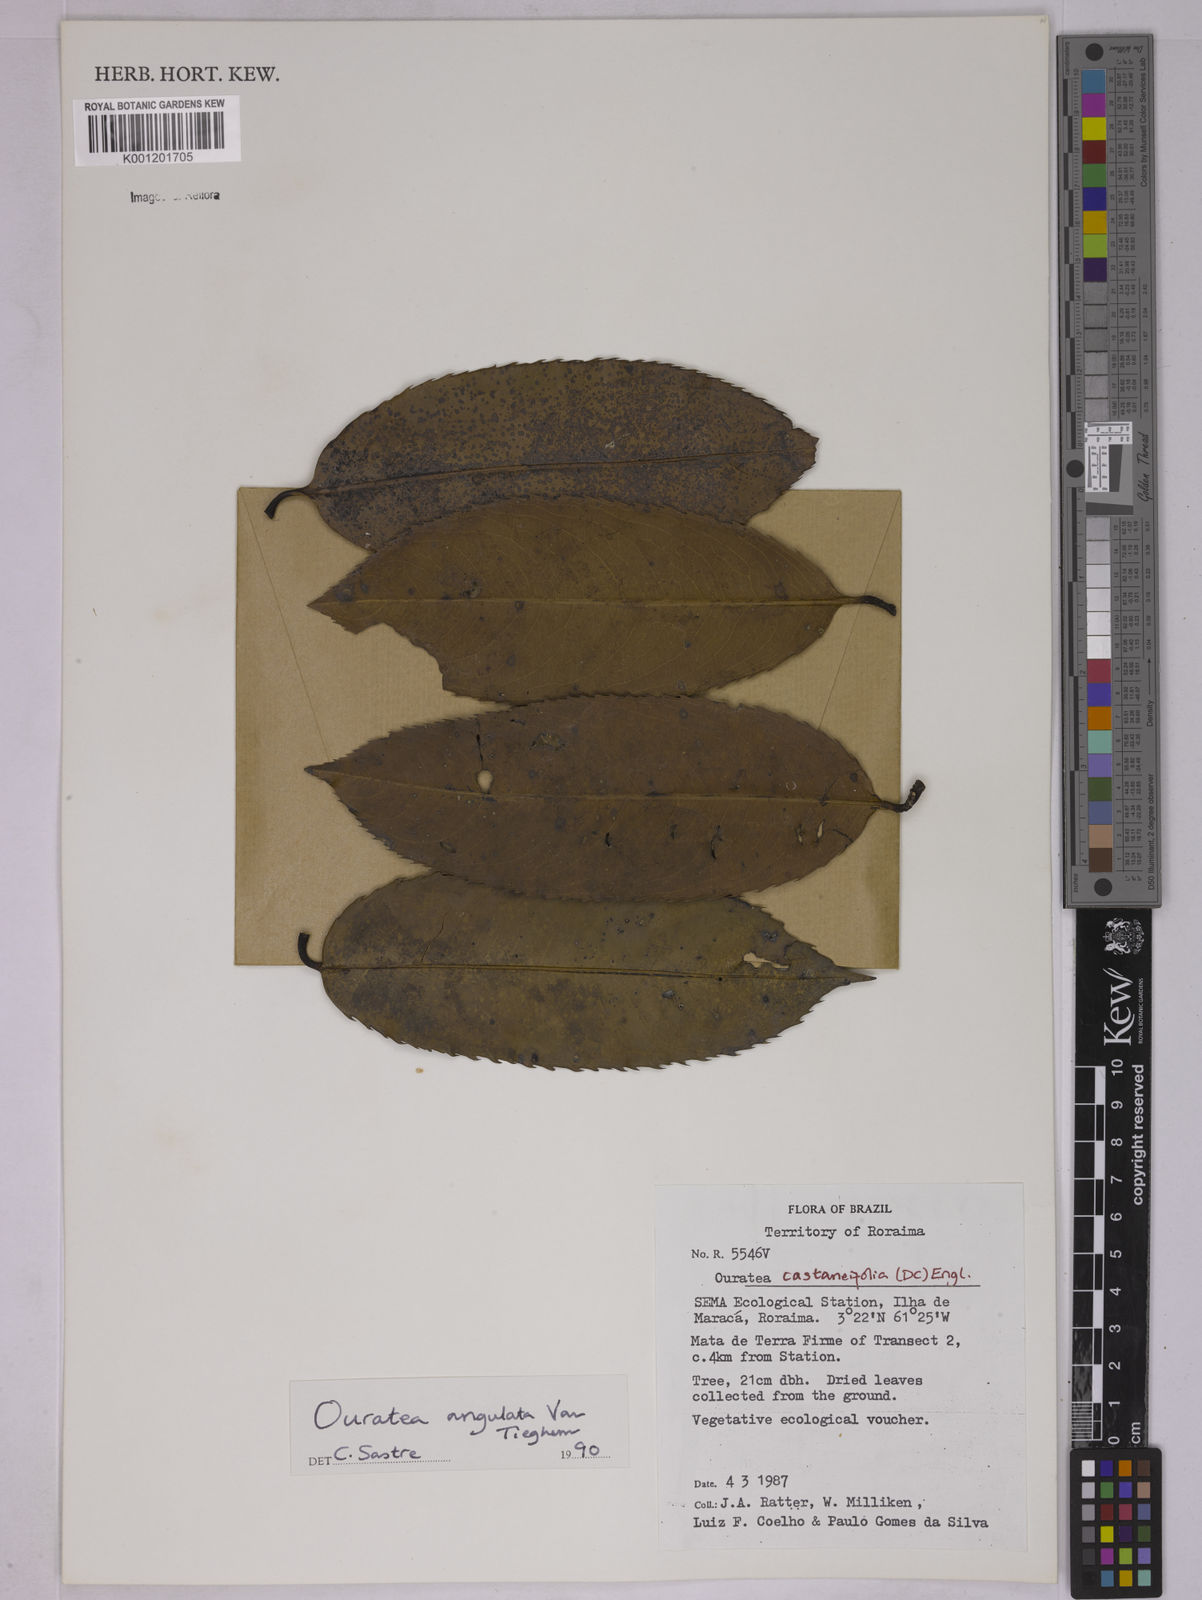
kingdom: Plantae
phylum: Tracheophyta
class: Magnoliopsida
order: Malpighiales
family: Ochnaceae
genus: Ouratea
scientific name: Ouratea castaneifolia
